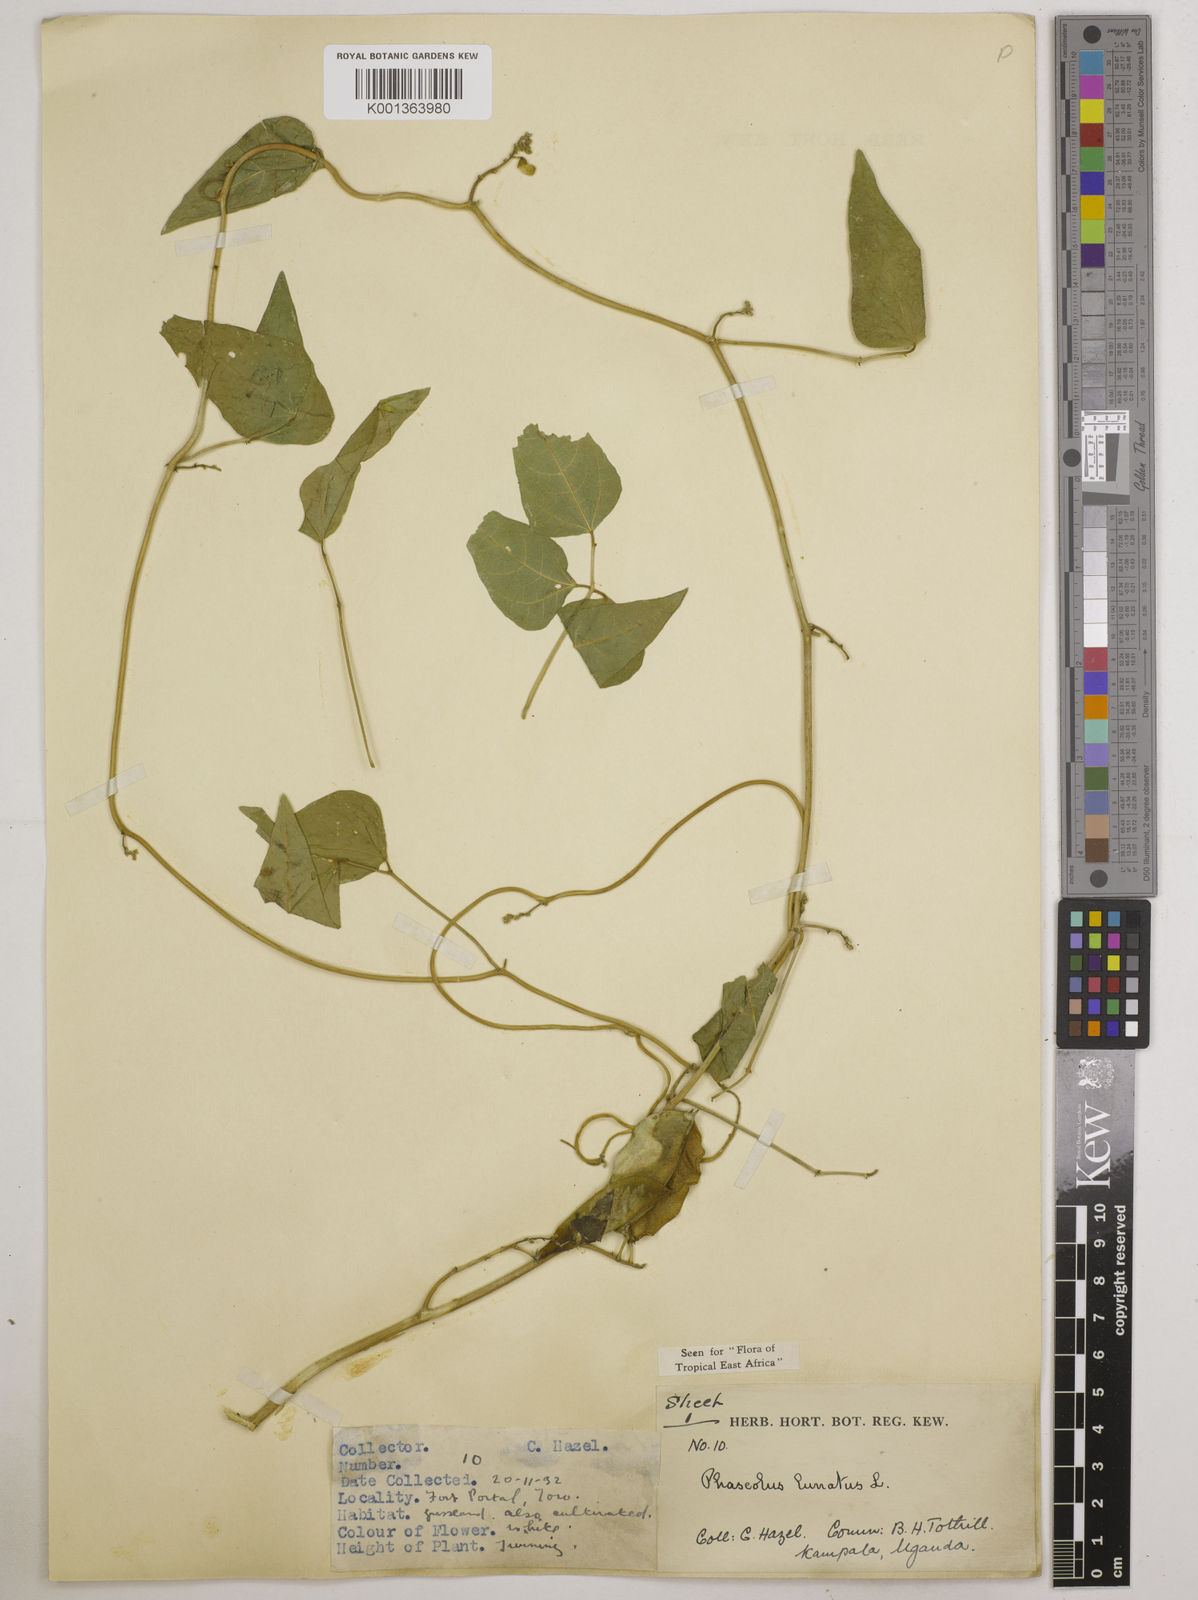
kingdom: Plantae
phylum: Tracheophyta
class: Magnoliopsida
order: Fabales
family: Fabaceae
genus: Phaseolus
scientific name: Phaseolus lunatus
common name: Sieva bean
